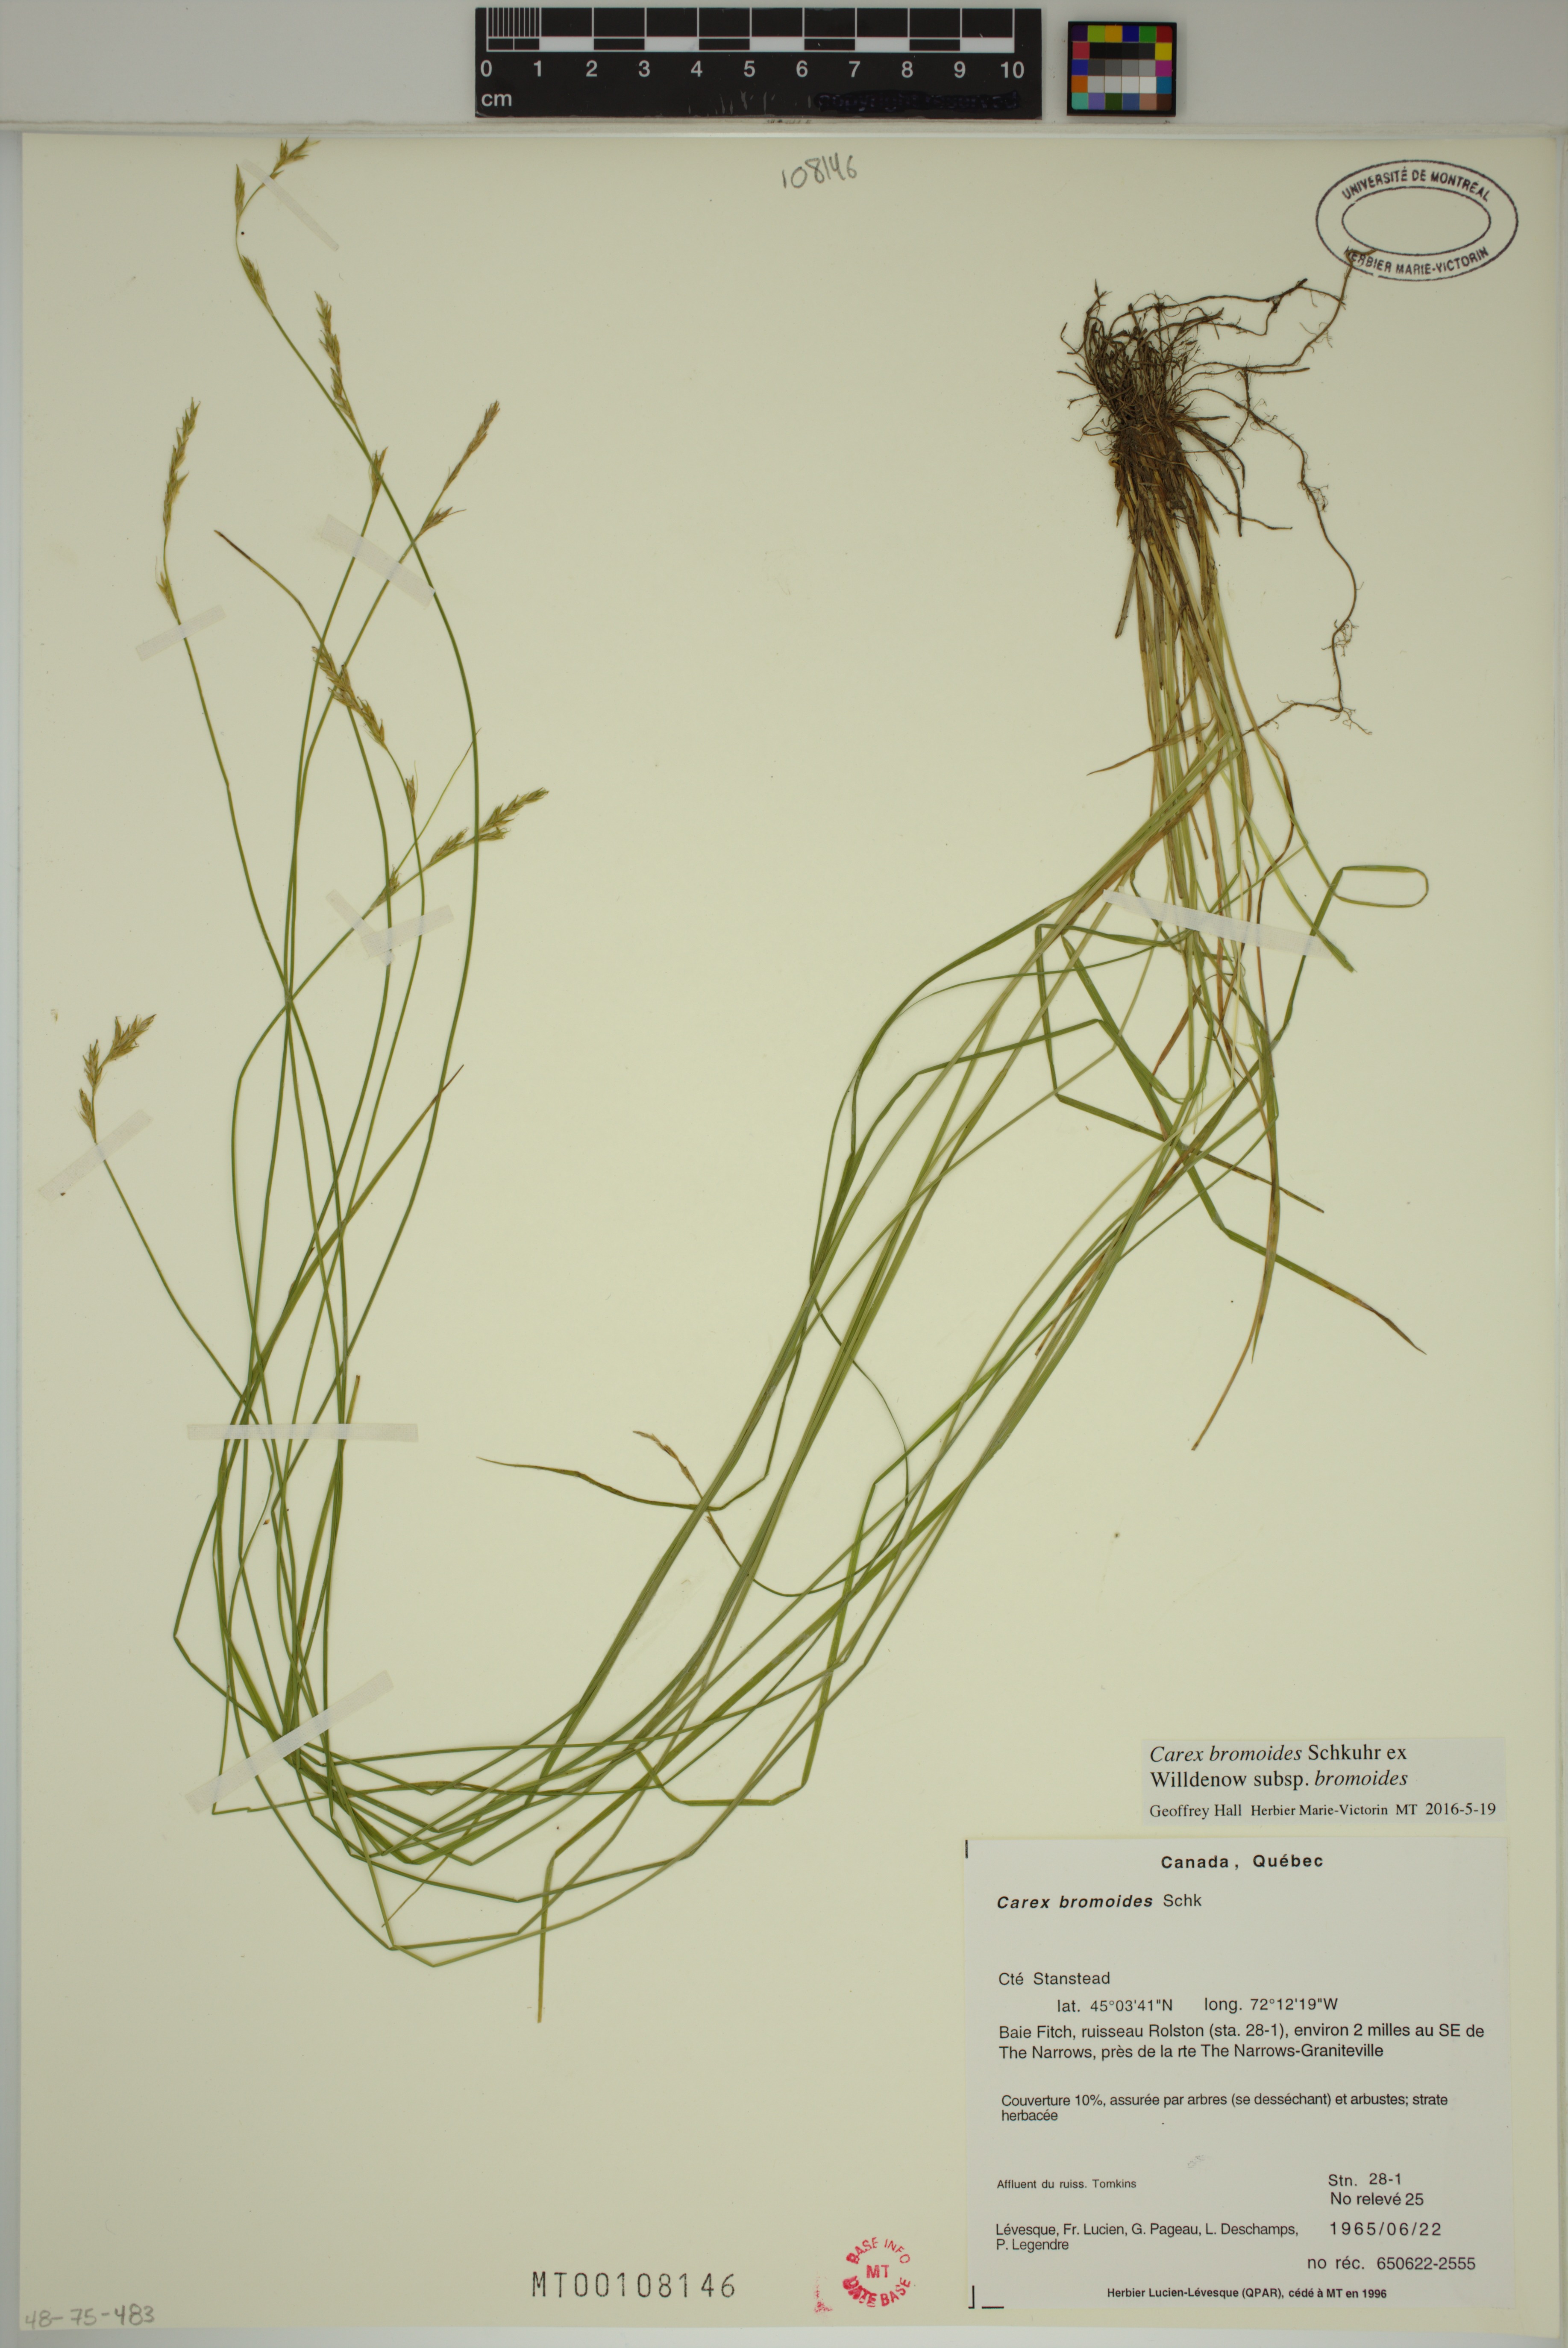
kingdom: Plantae
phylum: Tracheophyta
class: Liliopsida
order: Poales
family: Cyperaceae
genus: Carex
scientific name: Carex bromoides
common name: Brome hummock sedge
